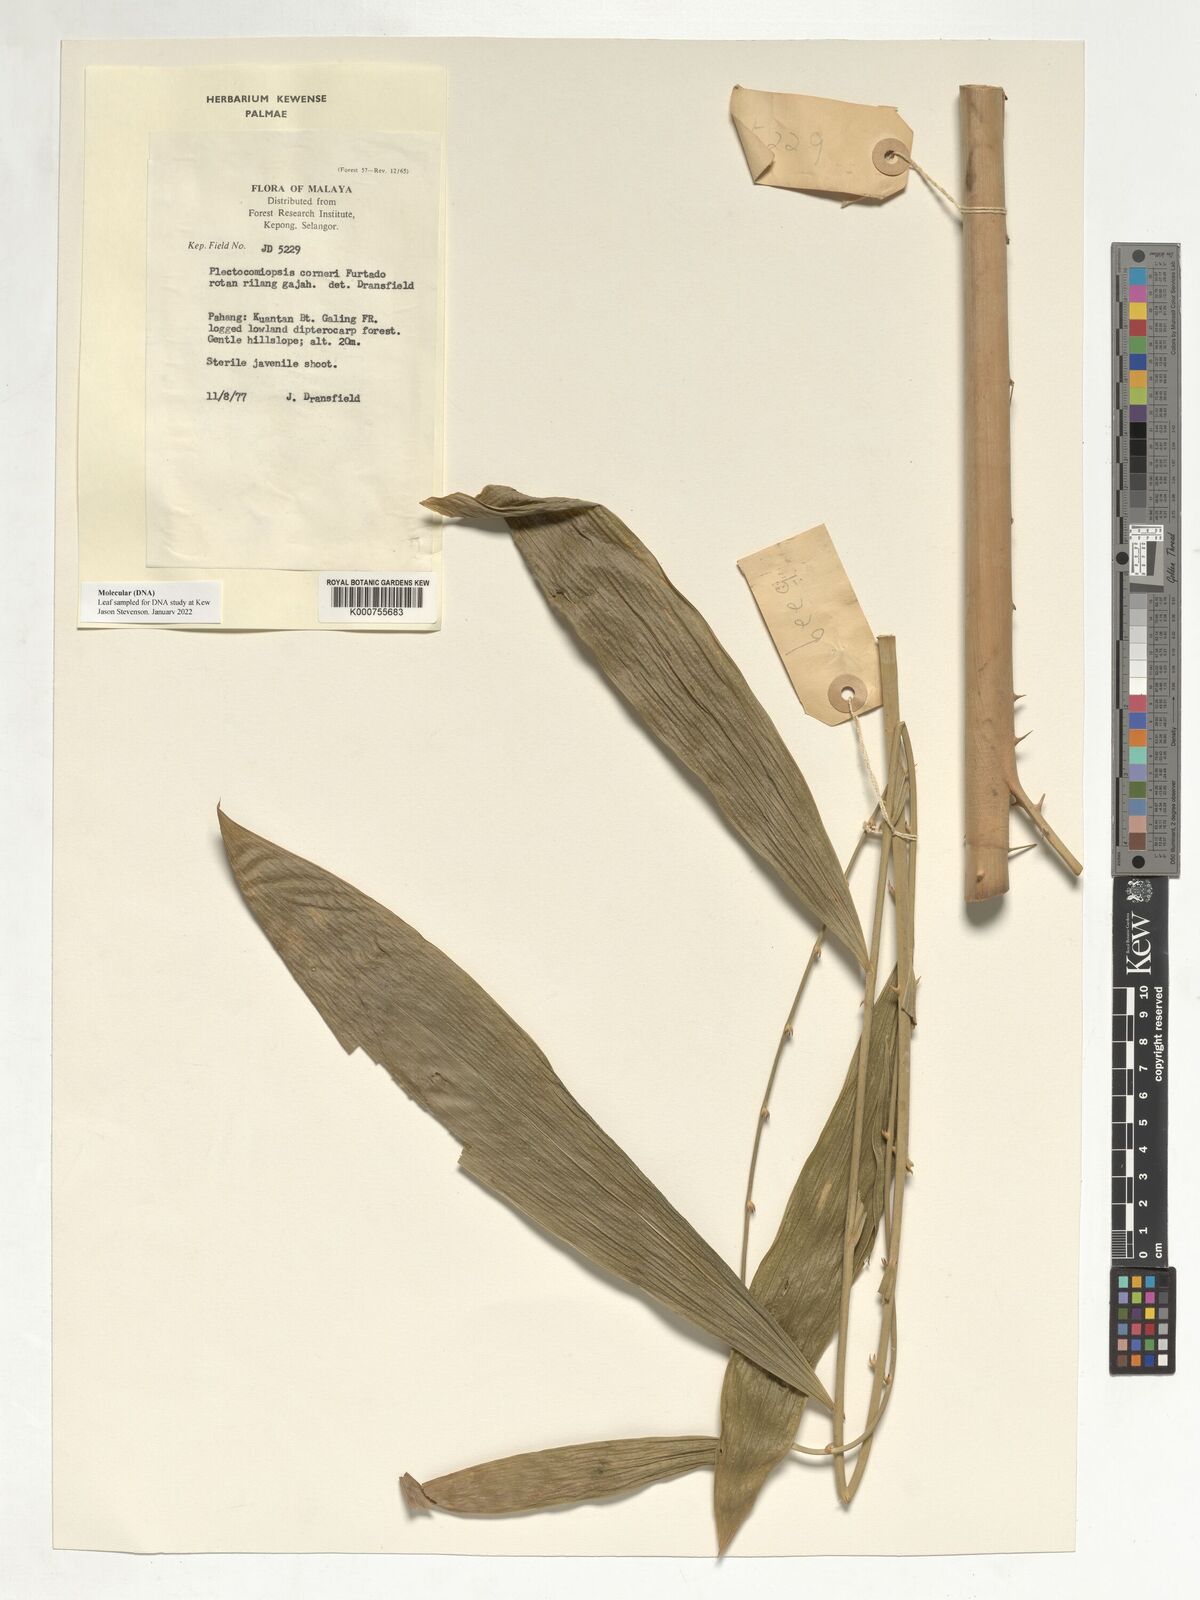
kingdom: Plantae
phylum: Tracheophyta
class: Liliopsida
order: Arecales
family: Arecaceae
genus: Plectocomiopsis
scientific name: Plectocomiopsis corneri
